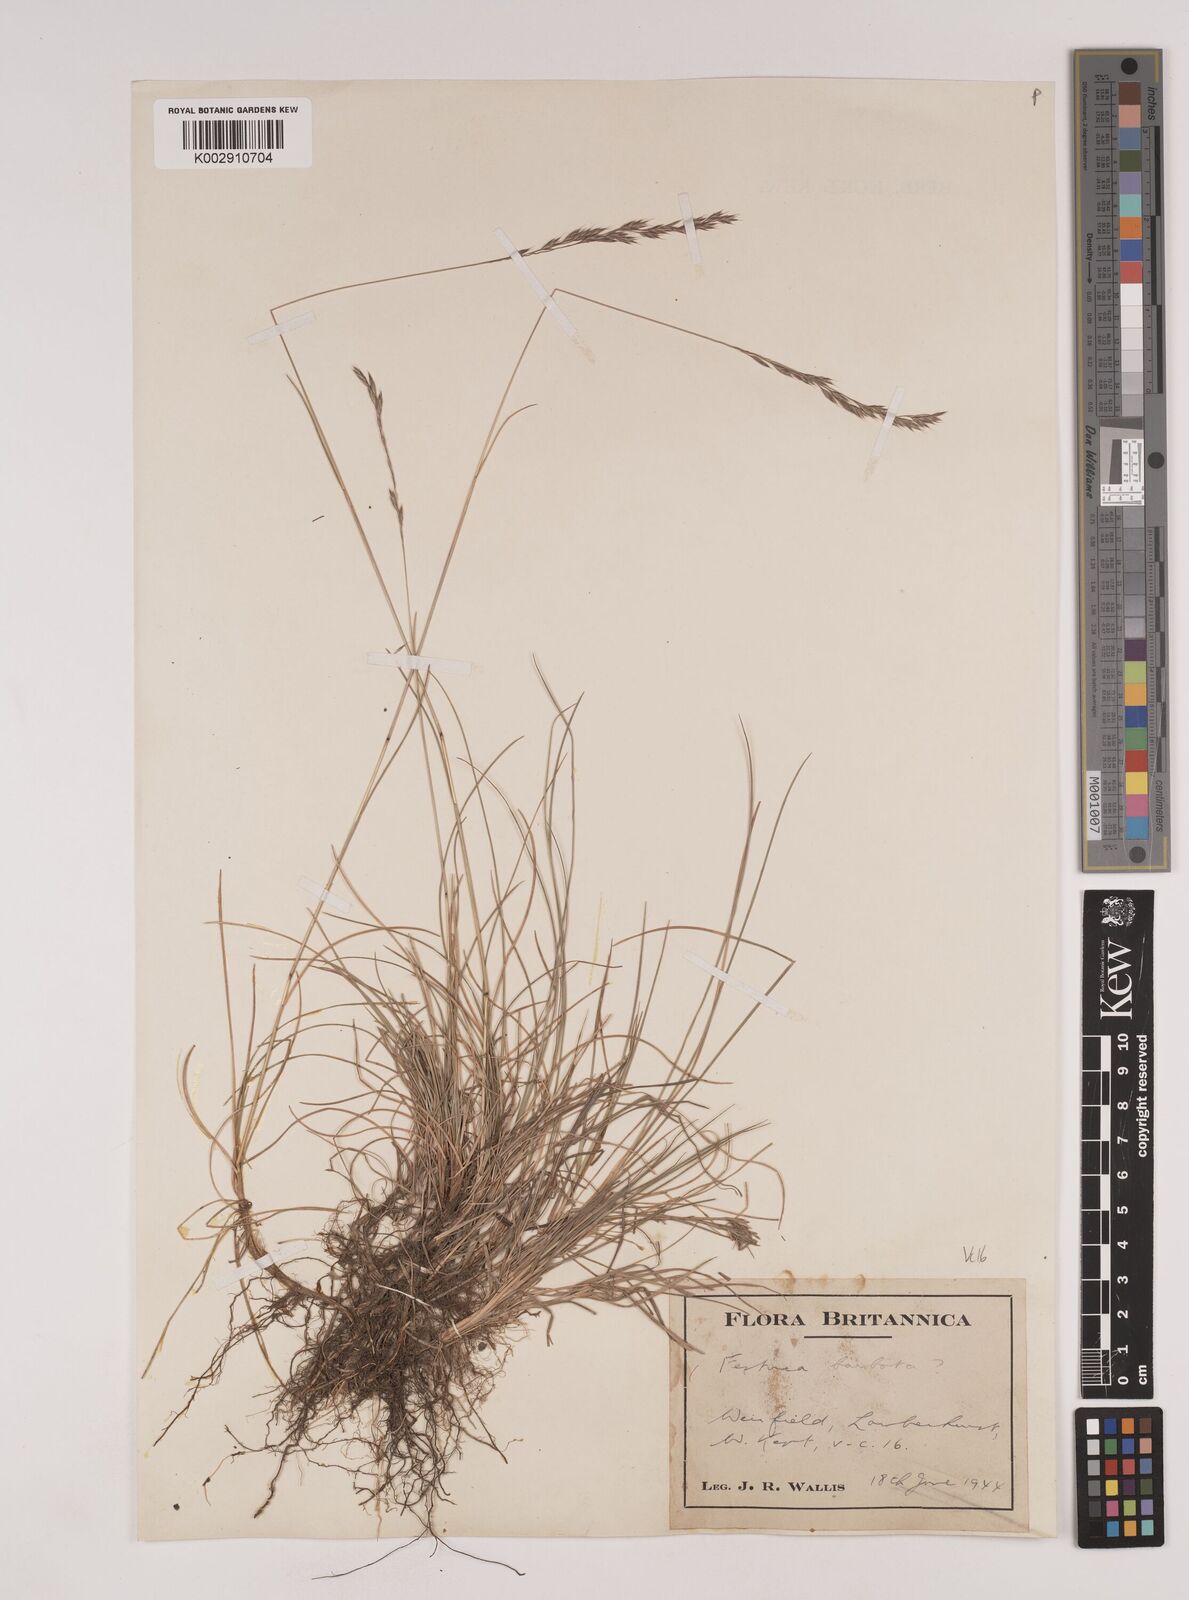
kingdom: Plantae
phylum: Tracheophyta
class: Liliopsida
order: Poales
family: Poaceae
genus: Festuca
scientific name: Festuca rubra
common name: Red fescue
